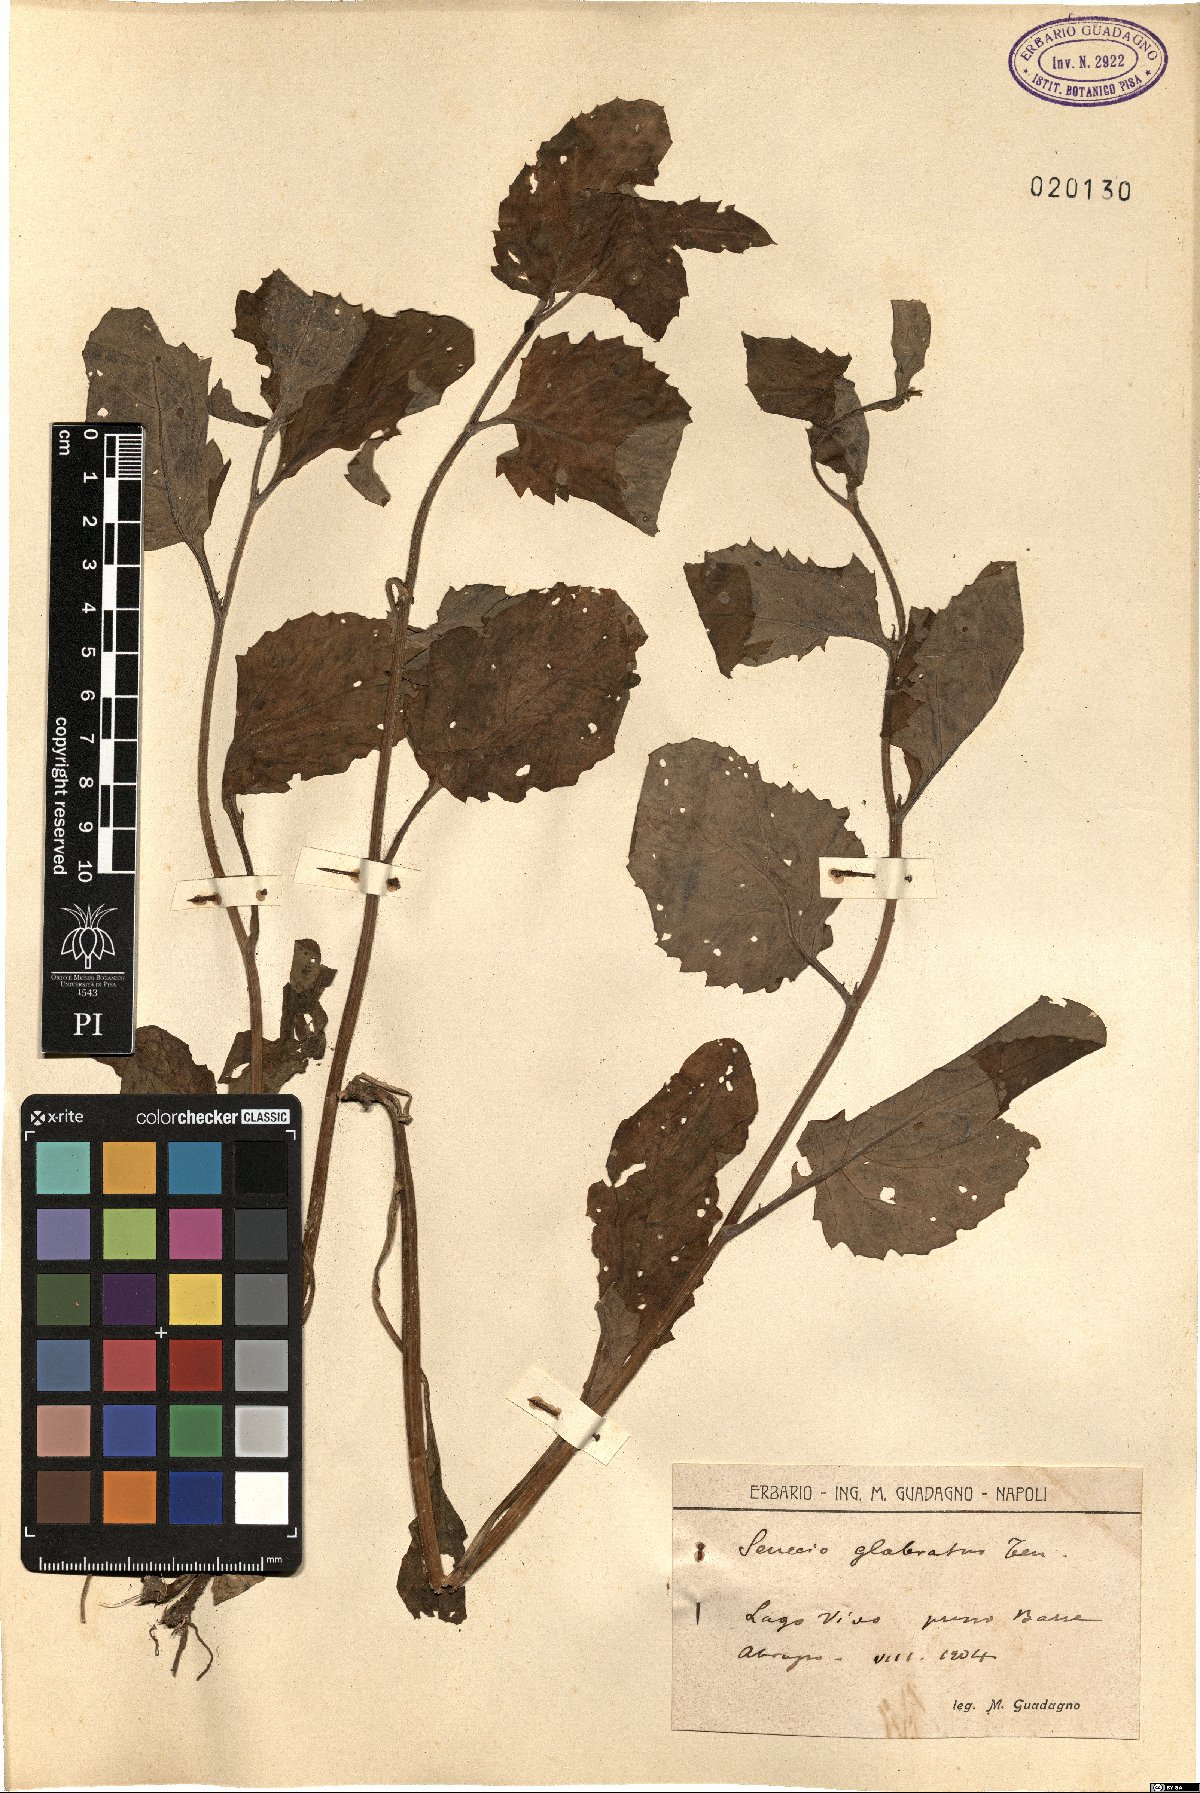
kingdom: Plantae
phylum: Tracheophyta
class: Magnoliopsida
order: Asterales
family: Asteraceae
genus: Senecio
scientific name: Senecio glabratus
